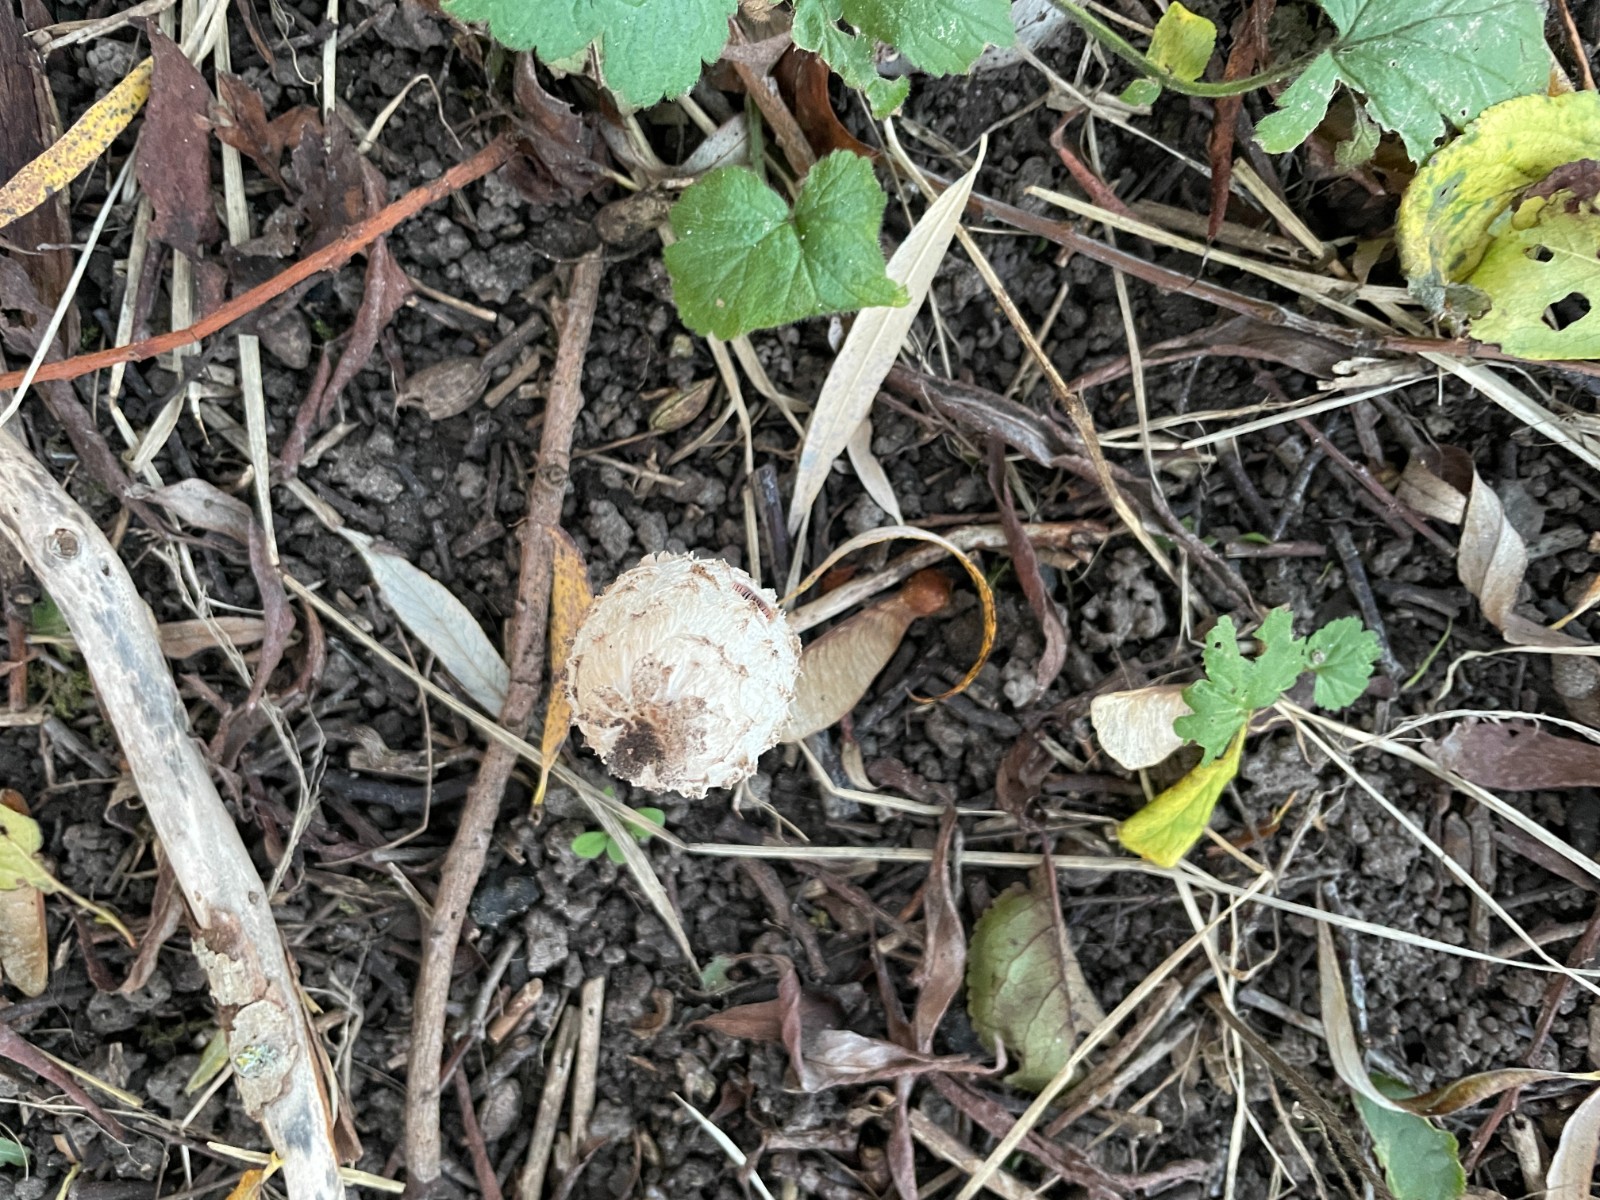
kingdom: Fungi
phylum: Basidiomycota
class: Agaricomycetes
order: Agaricales
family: Agaricaceae
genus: Coprinus
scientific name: Coprinus comatus
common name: stor parykhat
